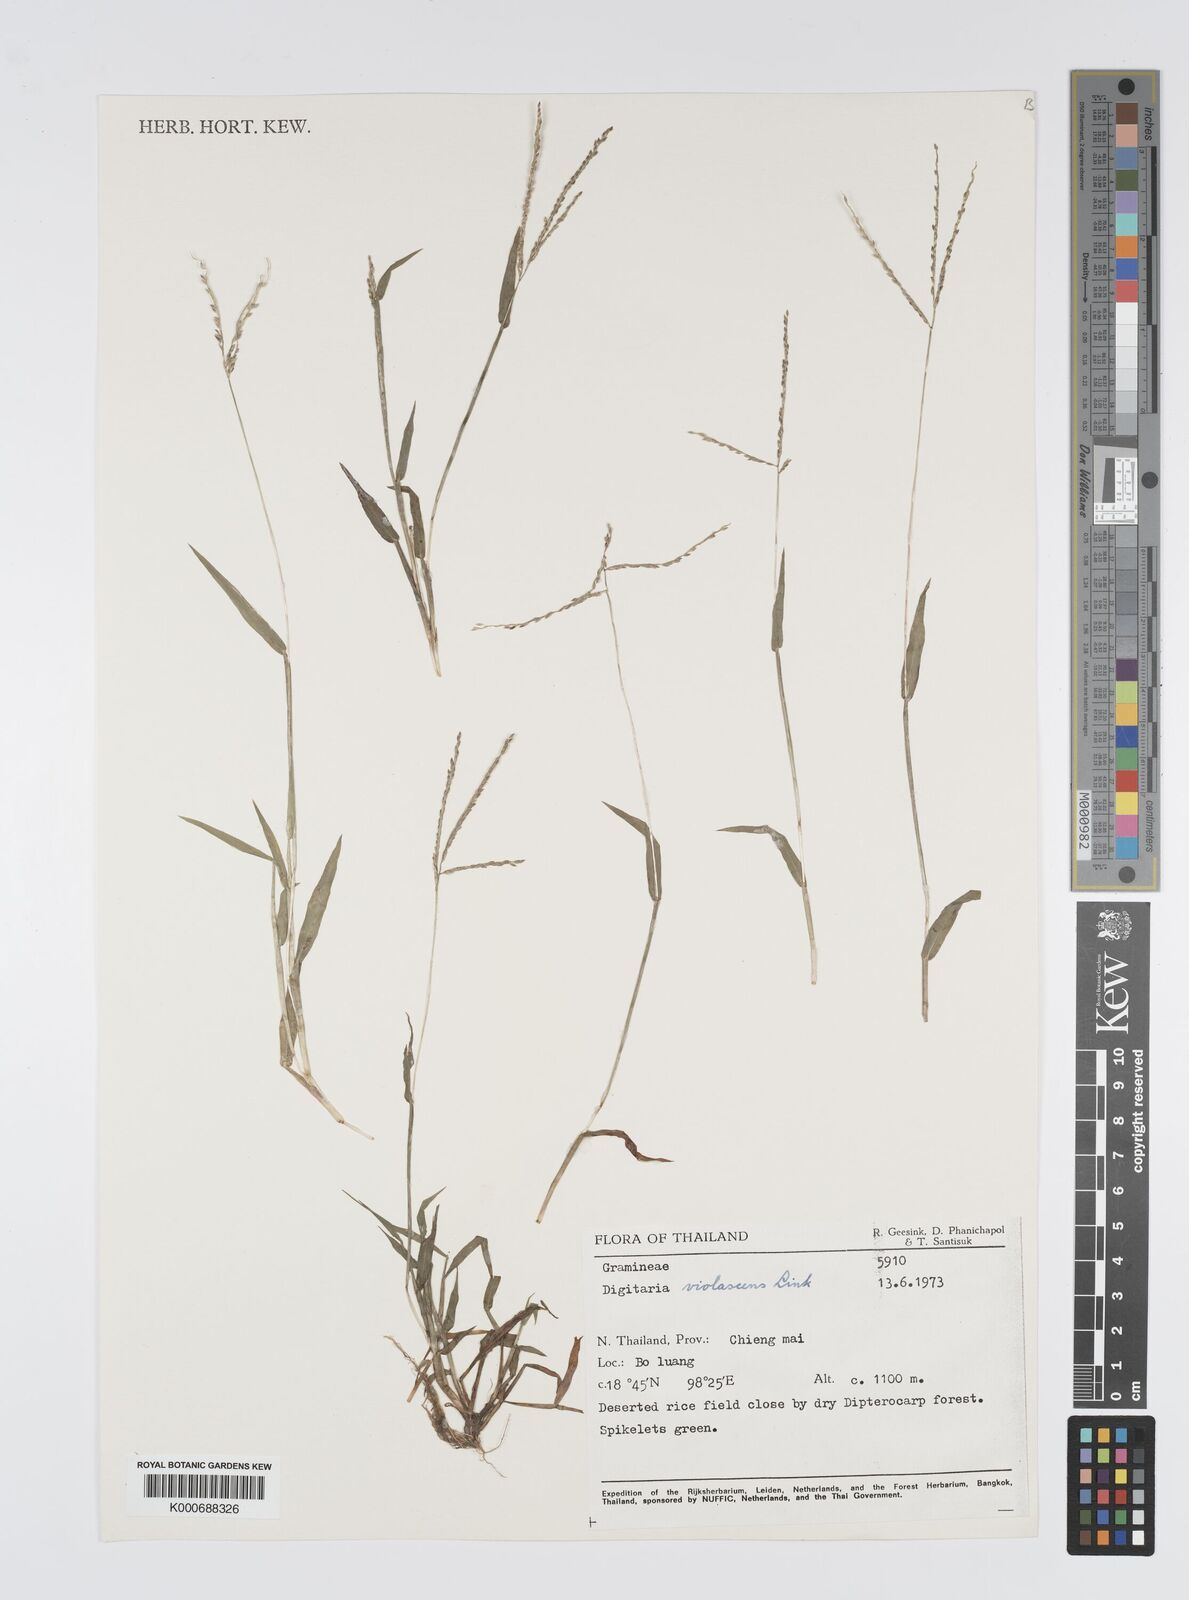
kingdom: Plantae
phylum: Tracheophyta
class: Liliopsida
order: Poales
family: Poaceae
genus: Digitaria
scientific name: Digitaria violascens
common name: Violet crabgrass
